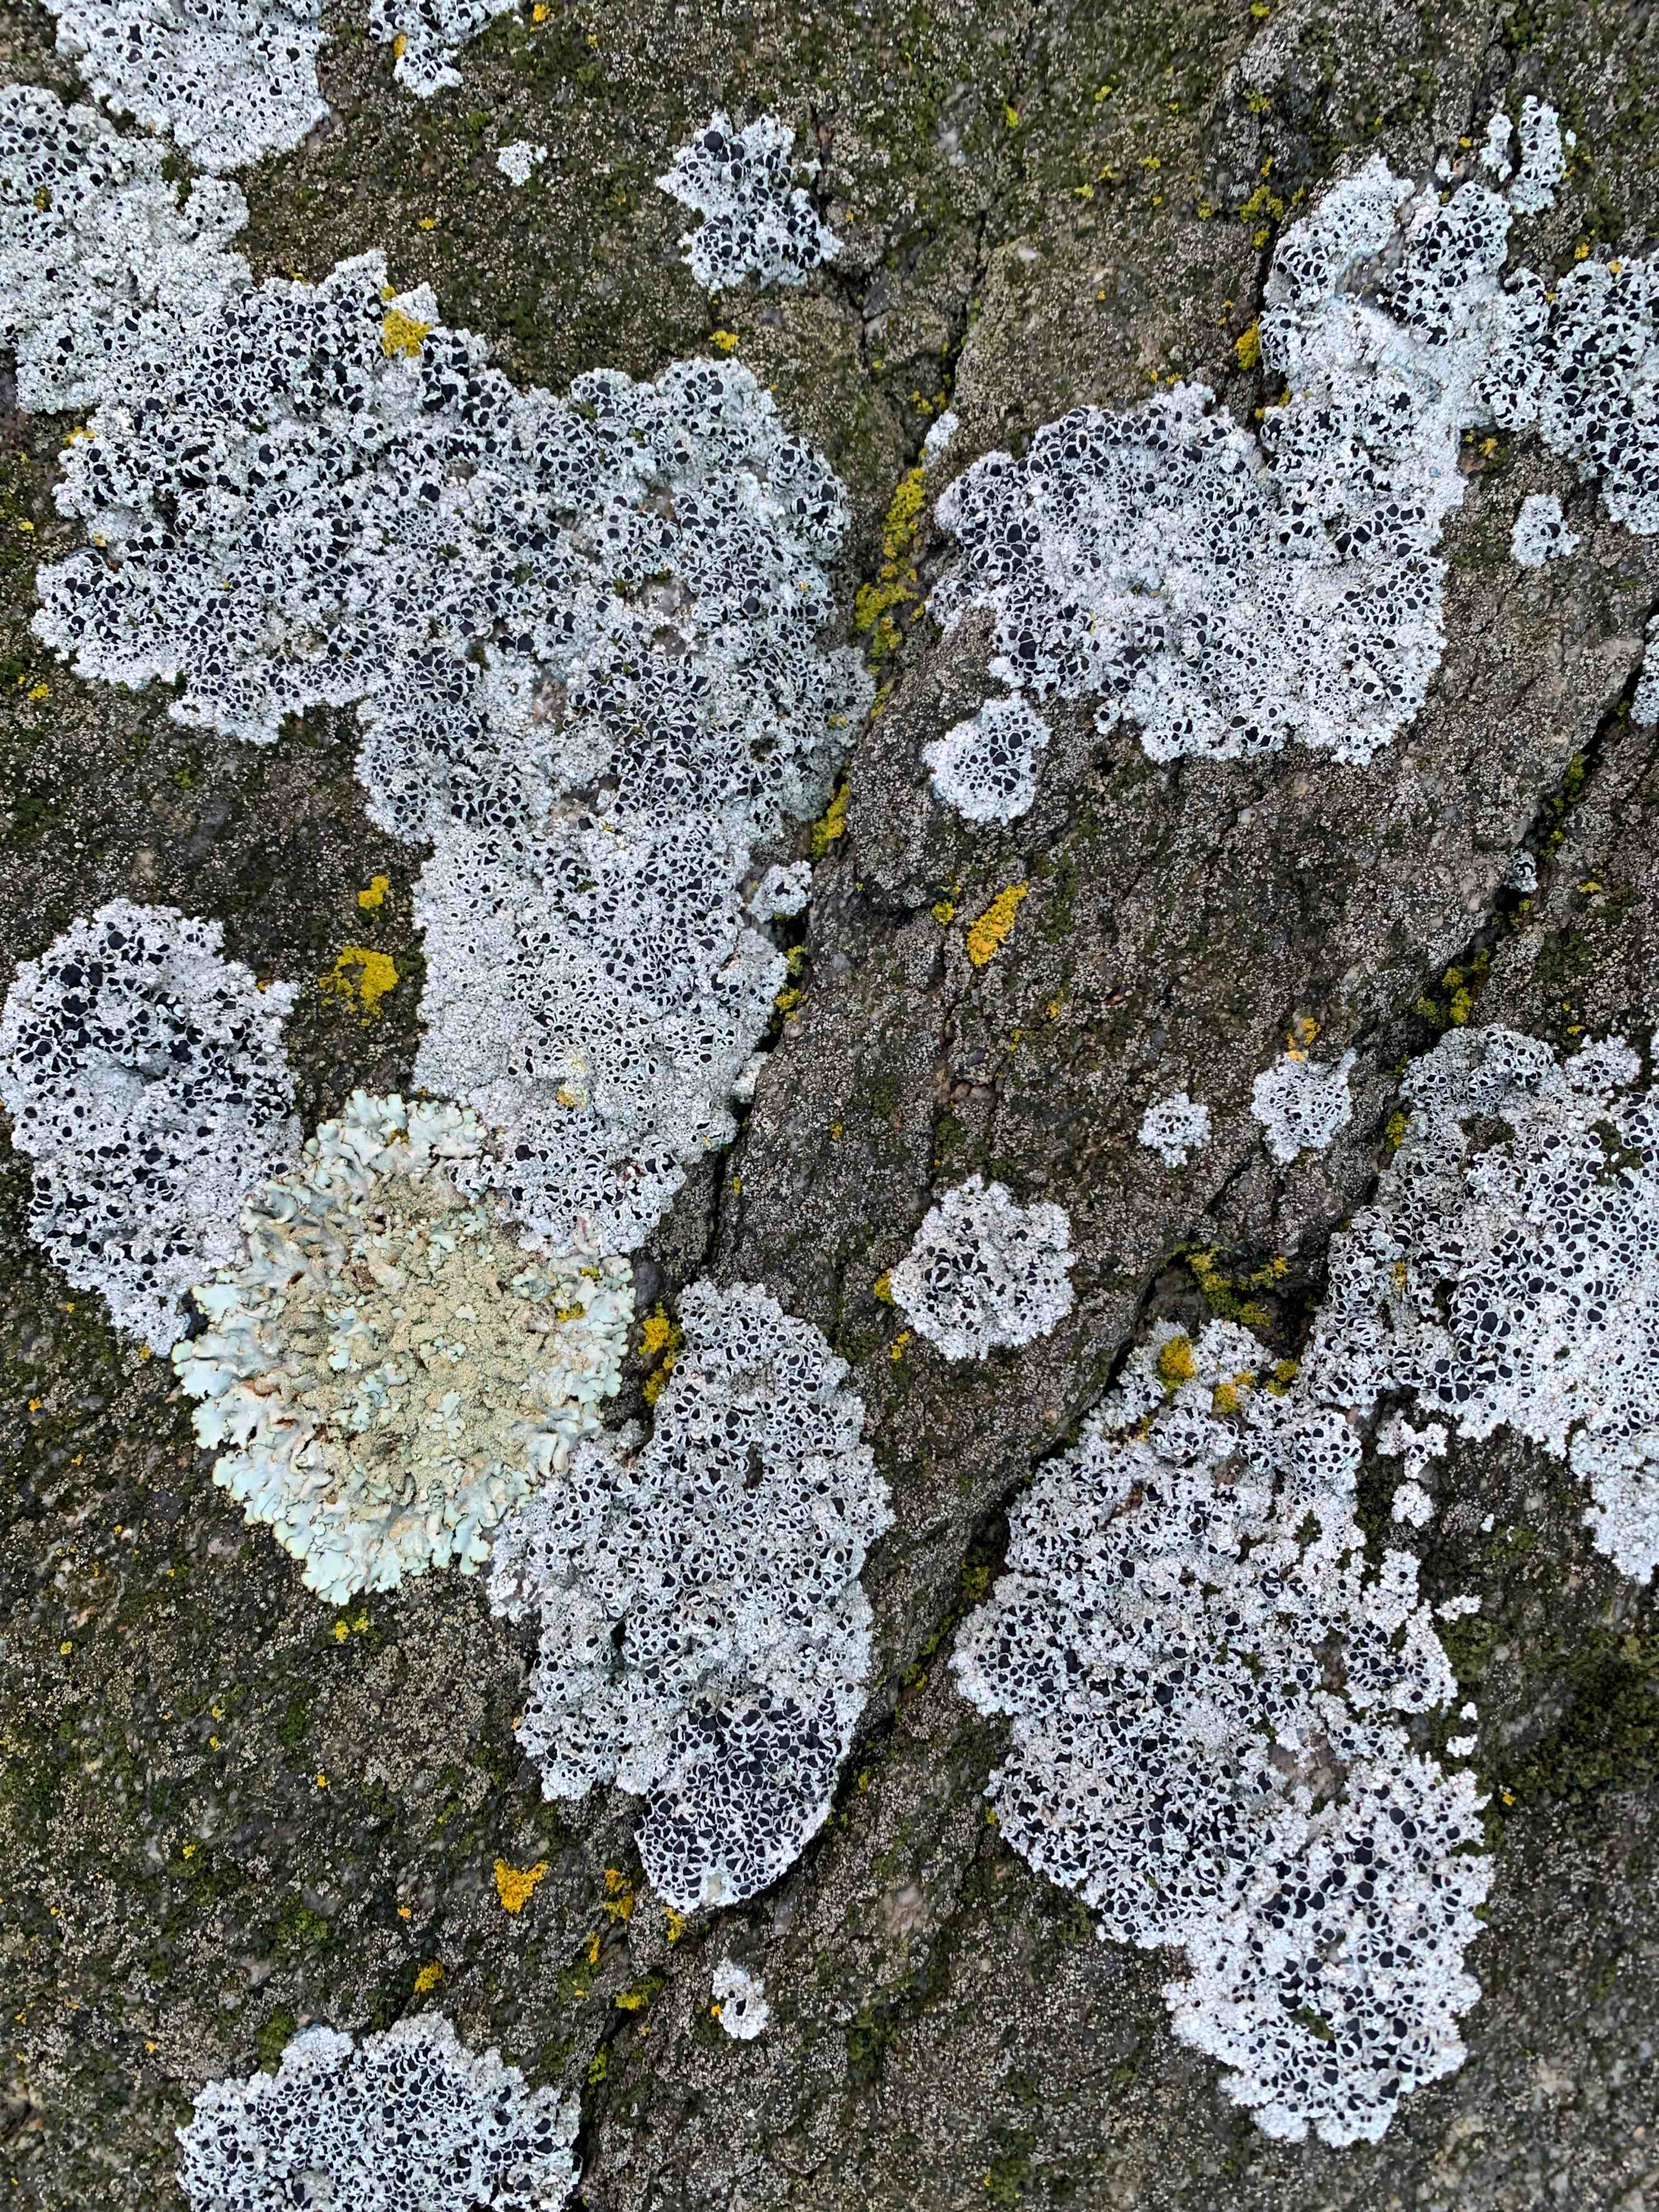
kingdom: Fungi
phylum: Ascomycota
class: Lecanoromycetes
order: Lecanorales
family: Tephromelataceae
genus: Tephromela
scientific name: Tephromela atra
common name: sortfrugtet kantskivelav
